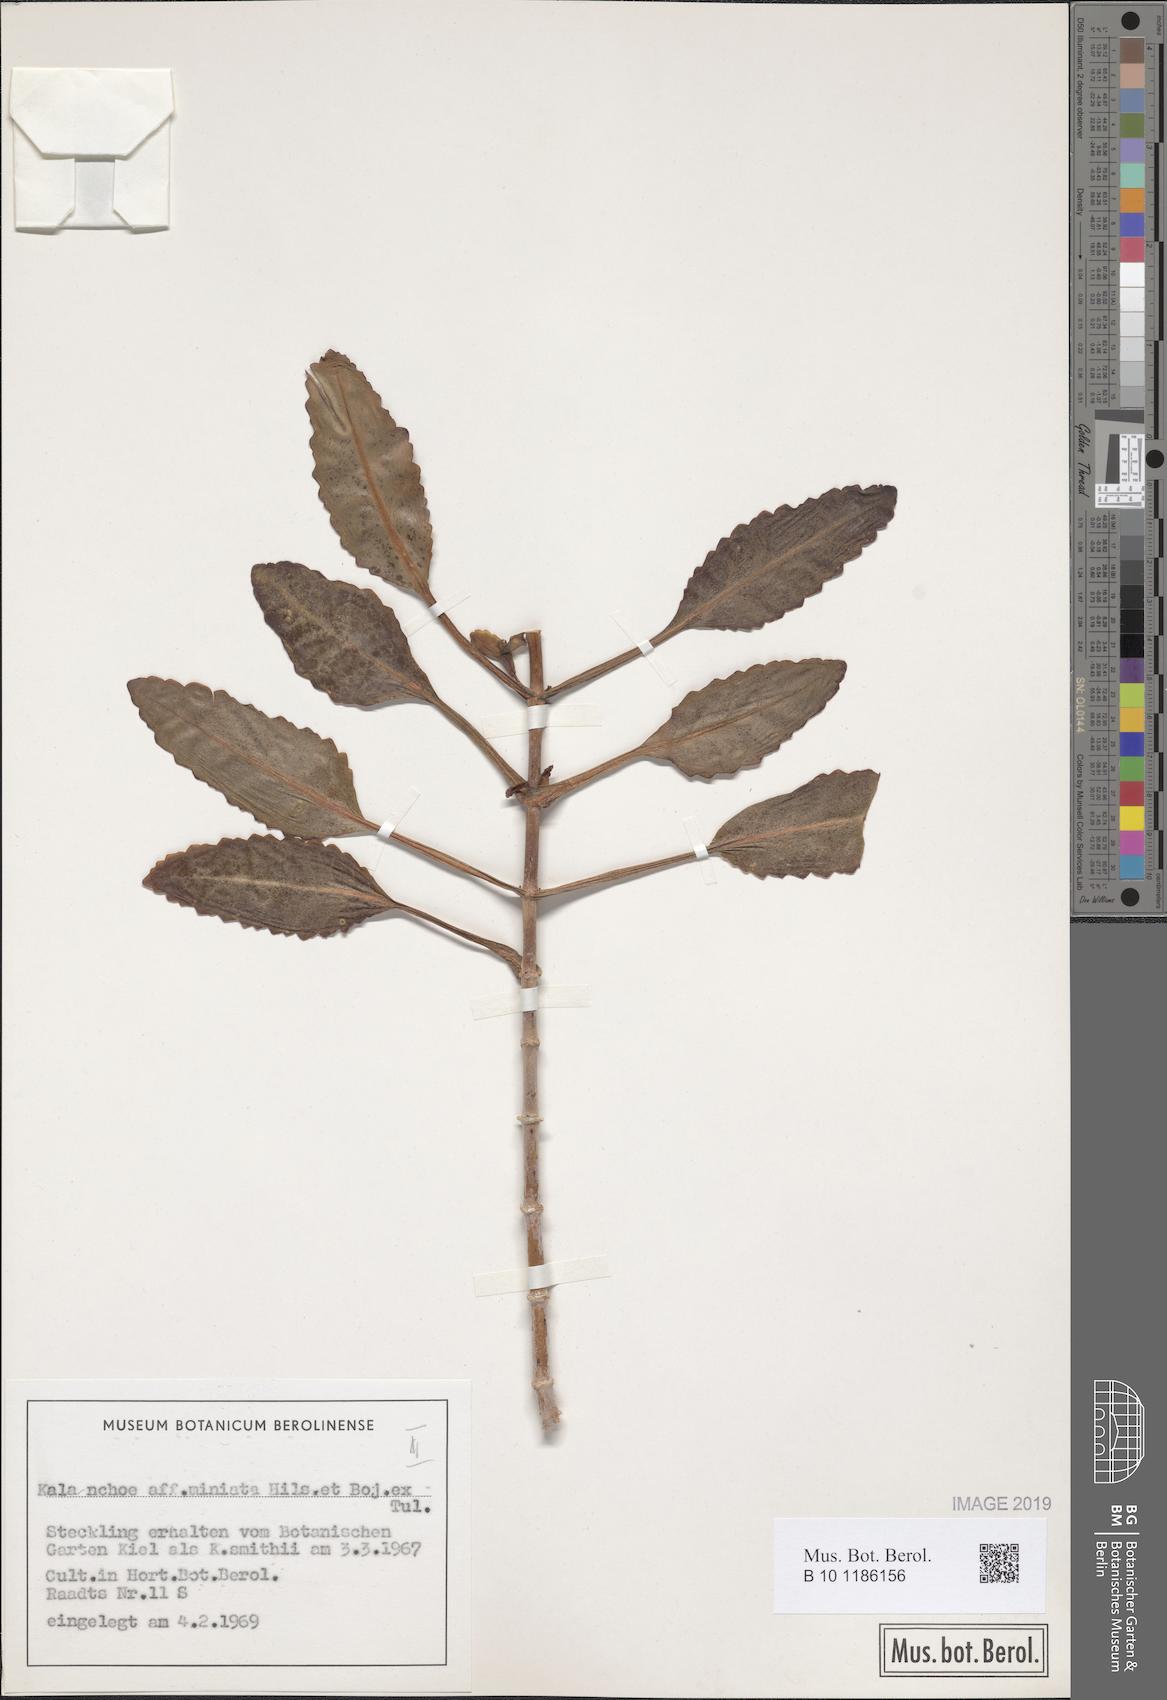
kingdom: Plantae
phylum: Tracheophyta
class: Magnoliopsida
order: Saxifragales
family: Crassulaceae
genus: Kalanchoe
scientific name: Kalanchoe miniata
